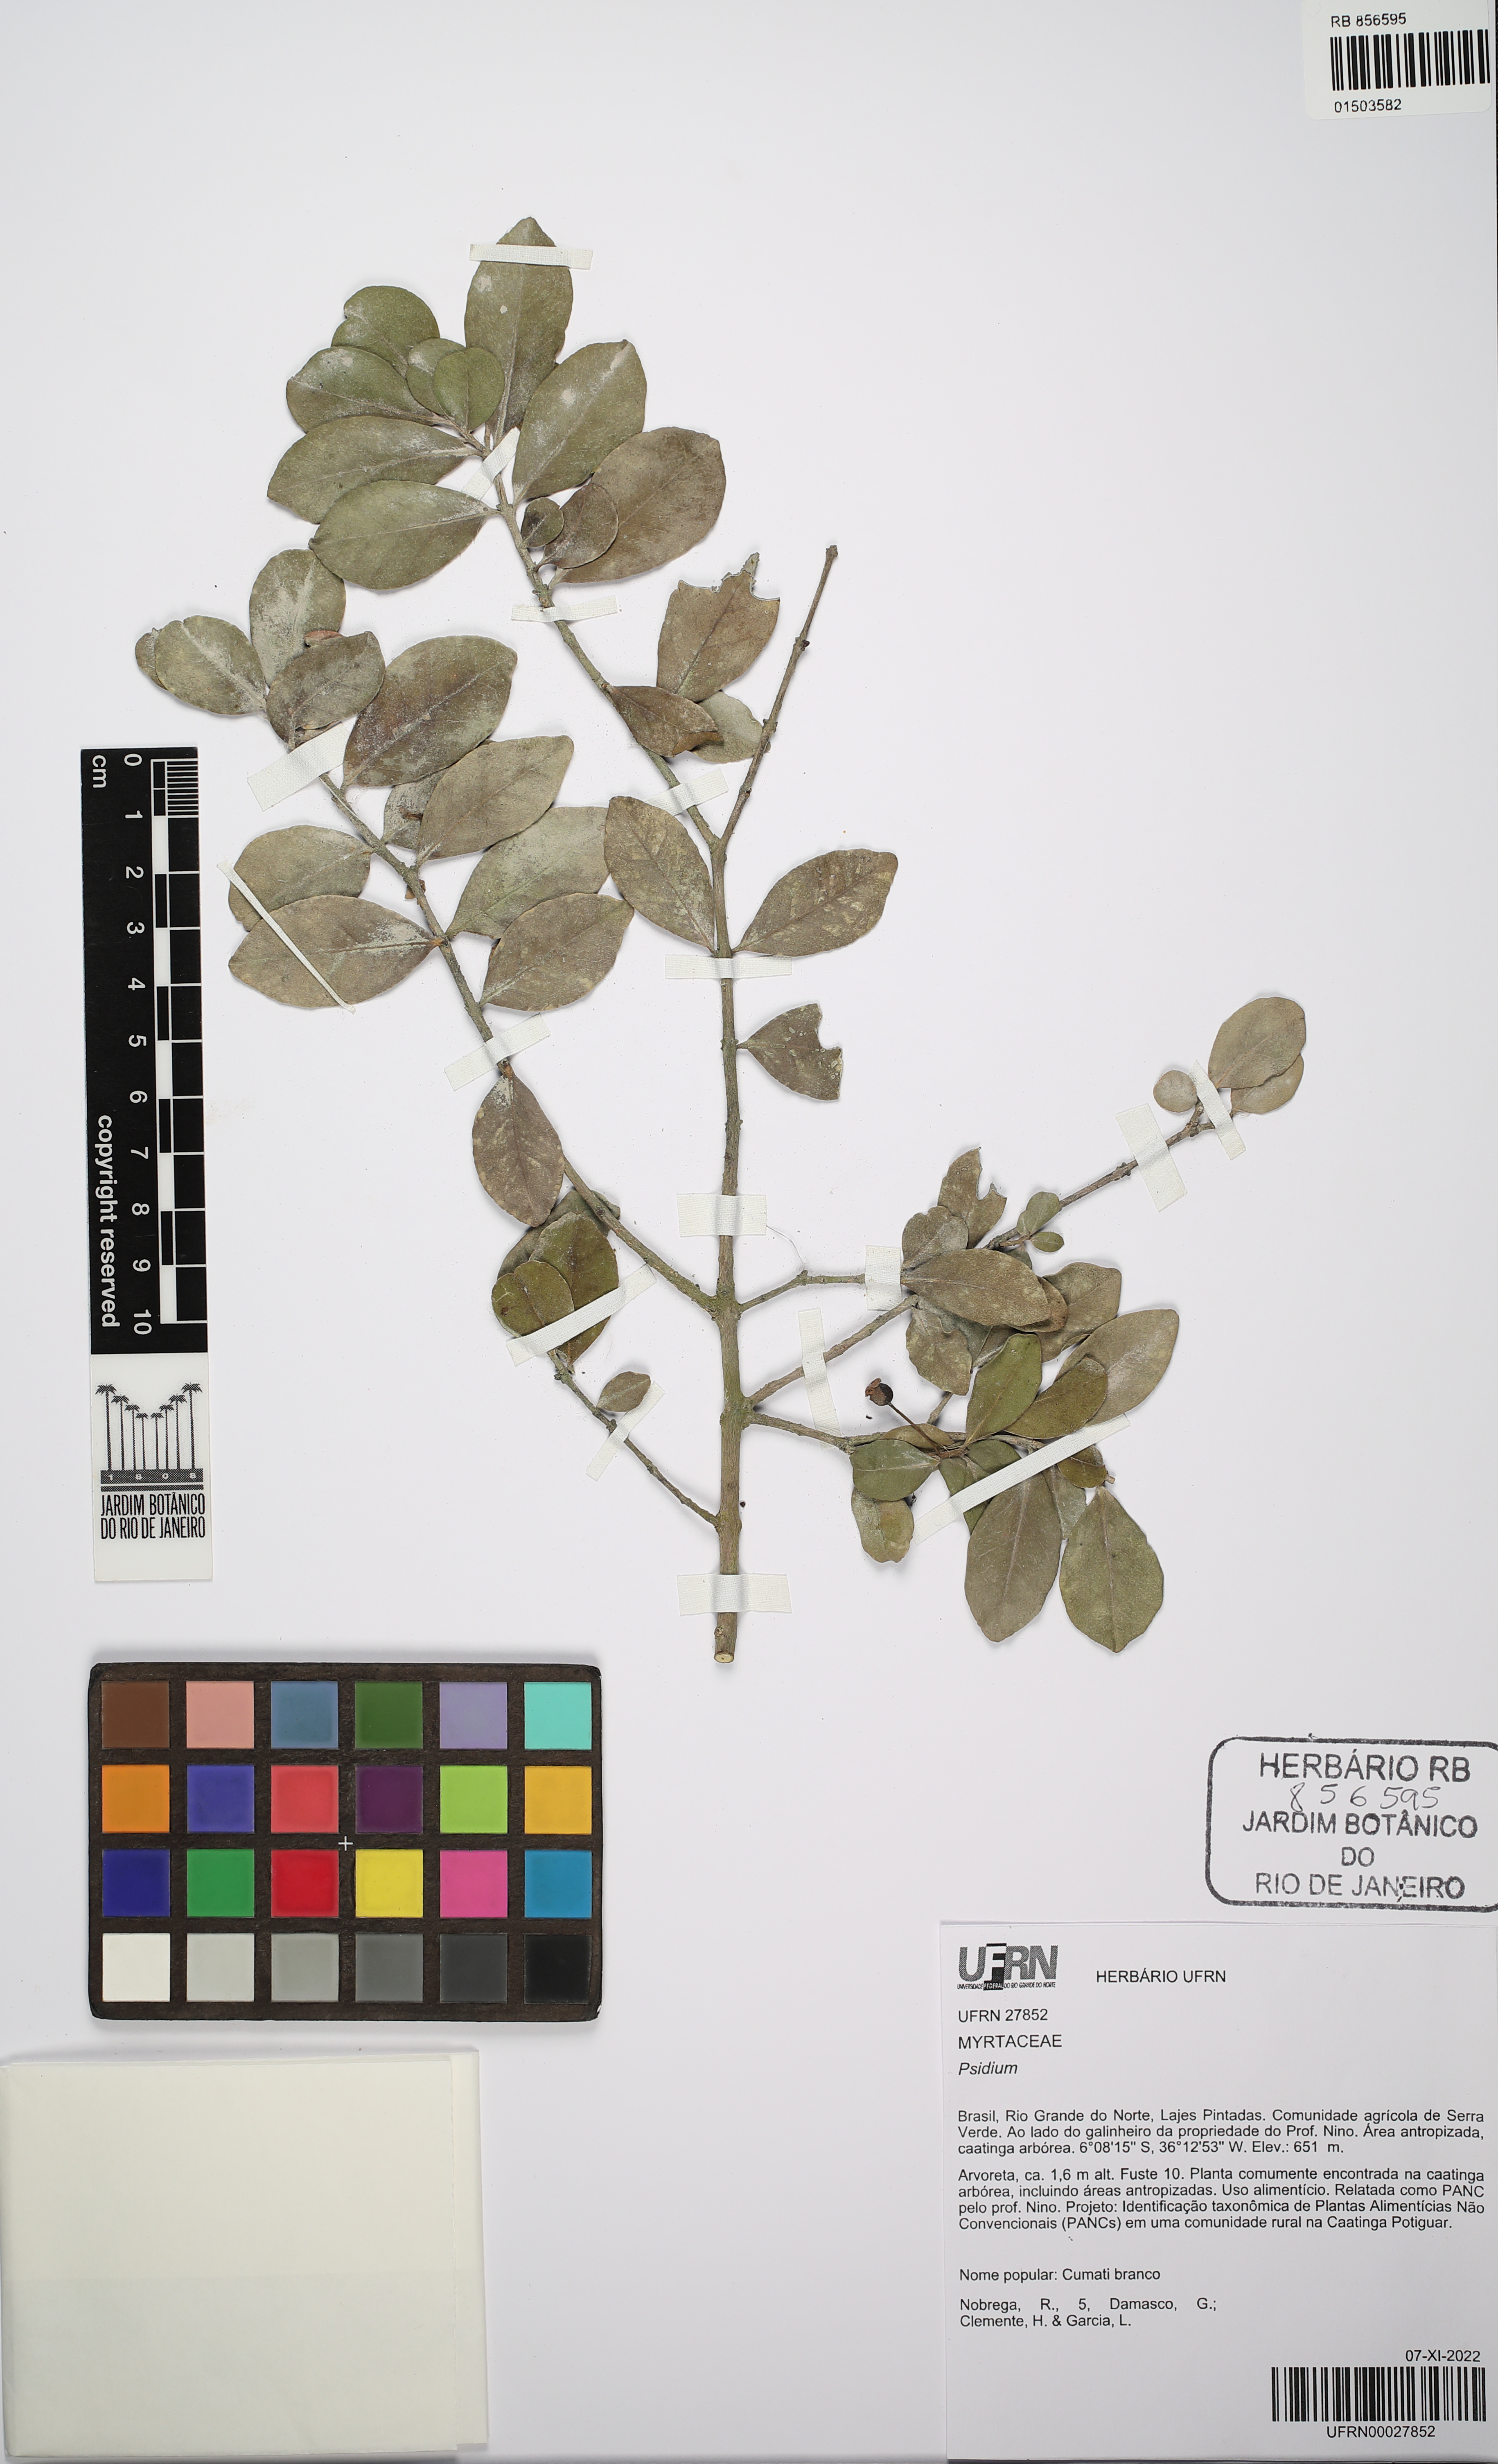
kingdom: Plantae
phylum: Tracheophyta
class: Magnoliopsida
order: Myrtales
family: Myrtaceae
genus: Psidium
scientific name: Psidium
